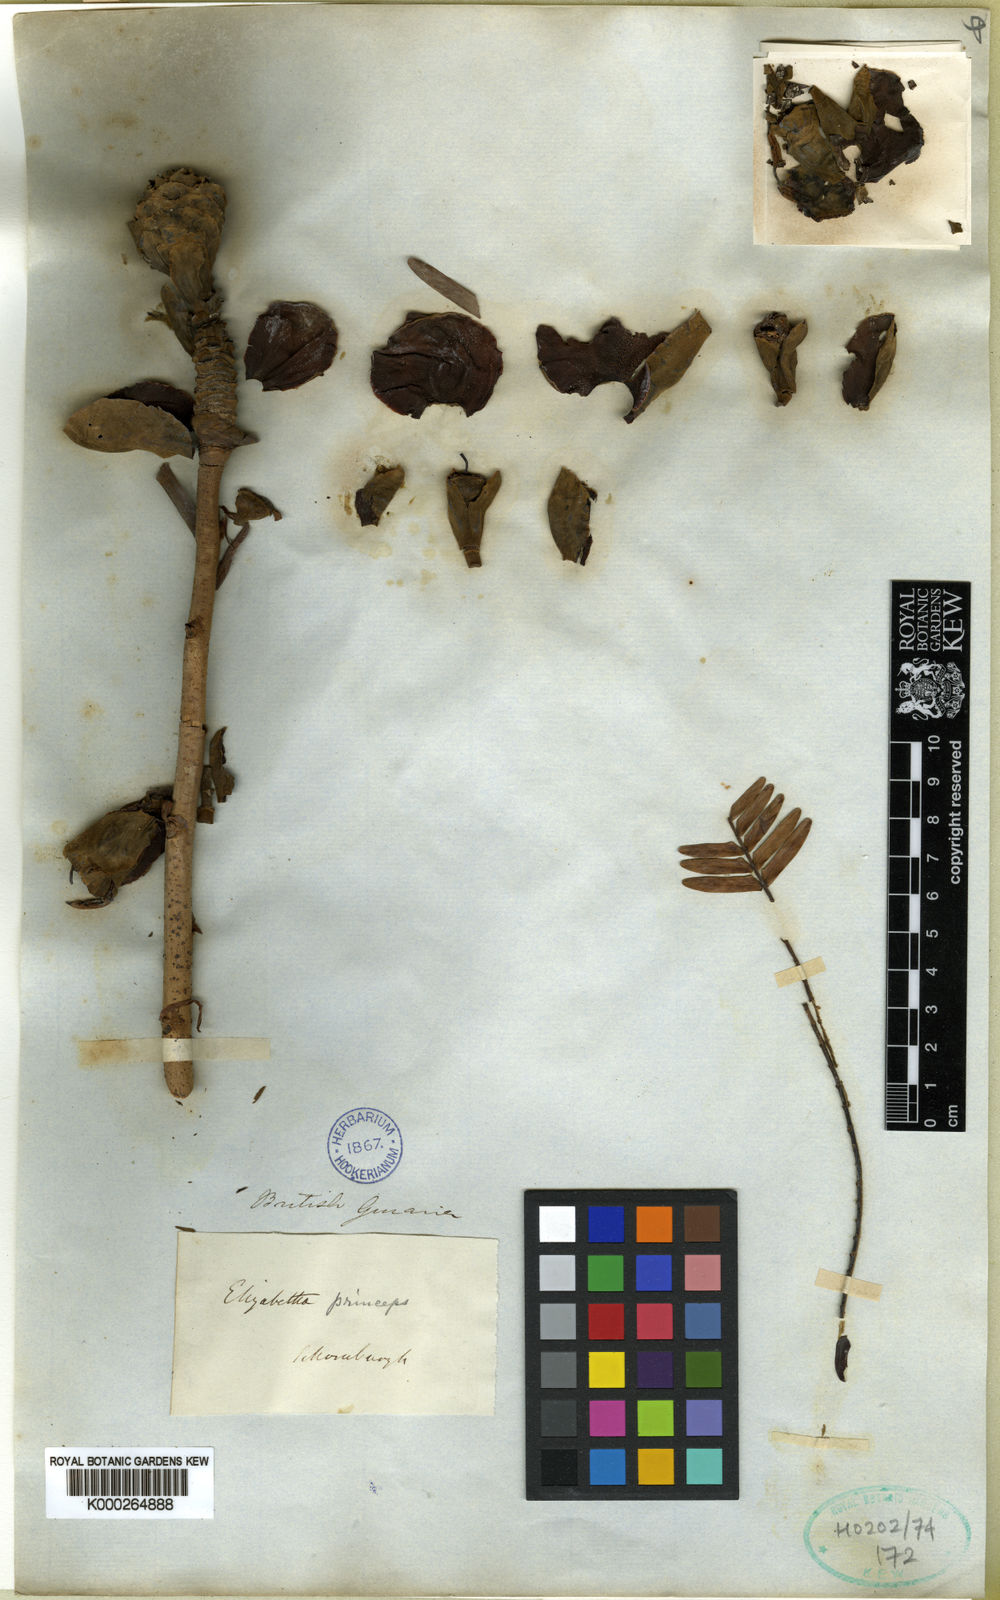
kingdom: Plantae
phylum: Tracheophyta
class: Magnoliopsida
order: Fabales
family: Fabaceae
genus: Paloue
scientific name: Paloue princeps
